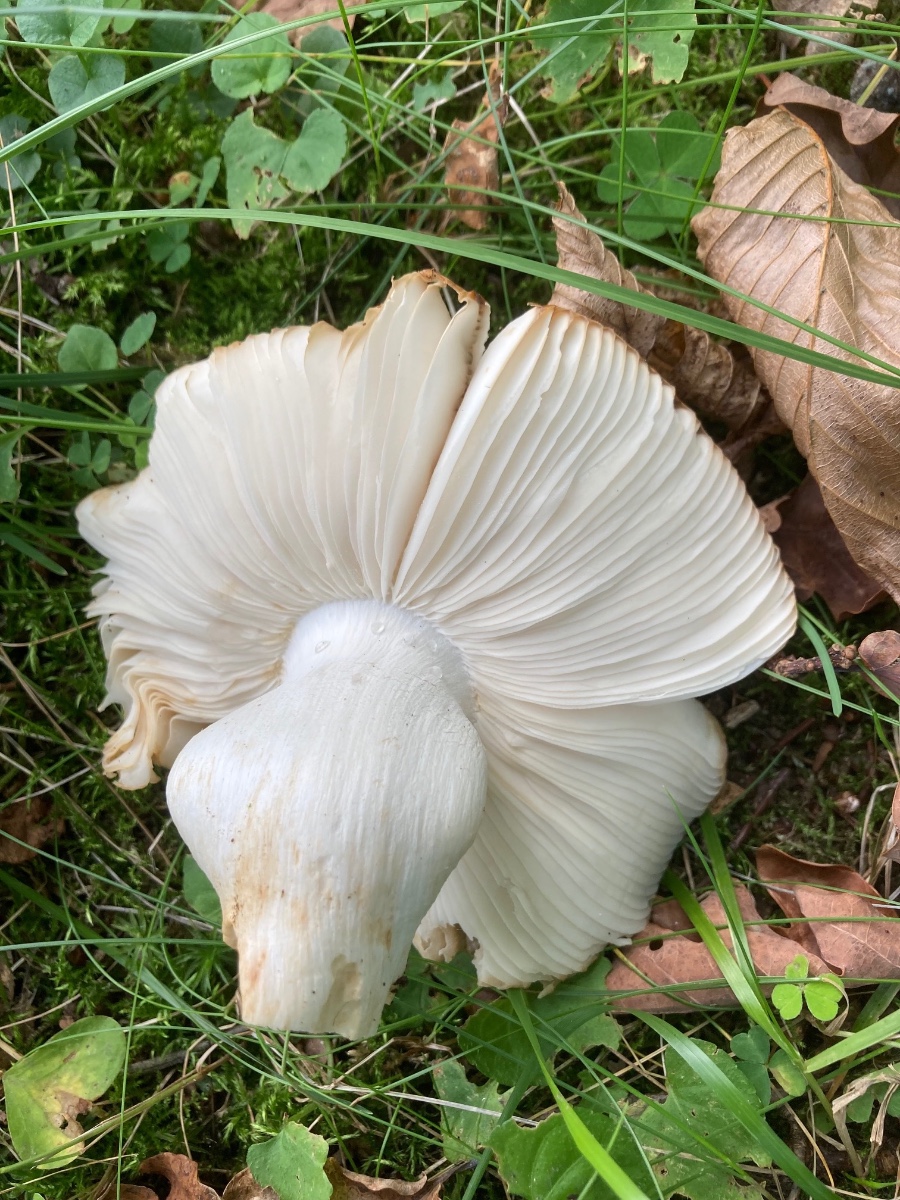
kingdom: Fungi
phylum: Basidiomycota
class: Agaricomycetes
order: Russulales
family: Russulaceae
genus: Russula
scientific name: Russula grata
